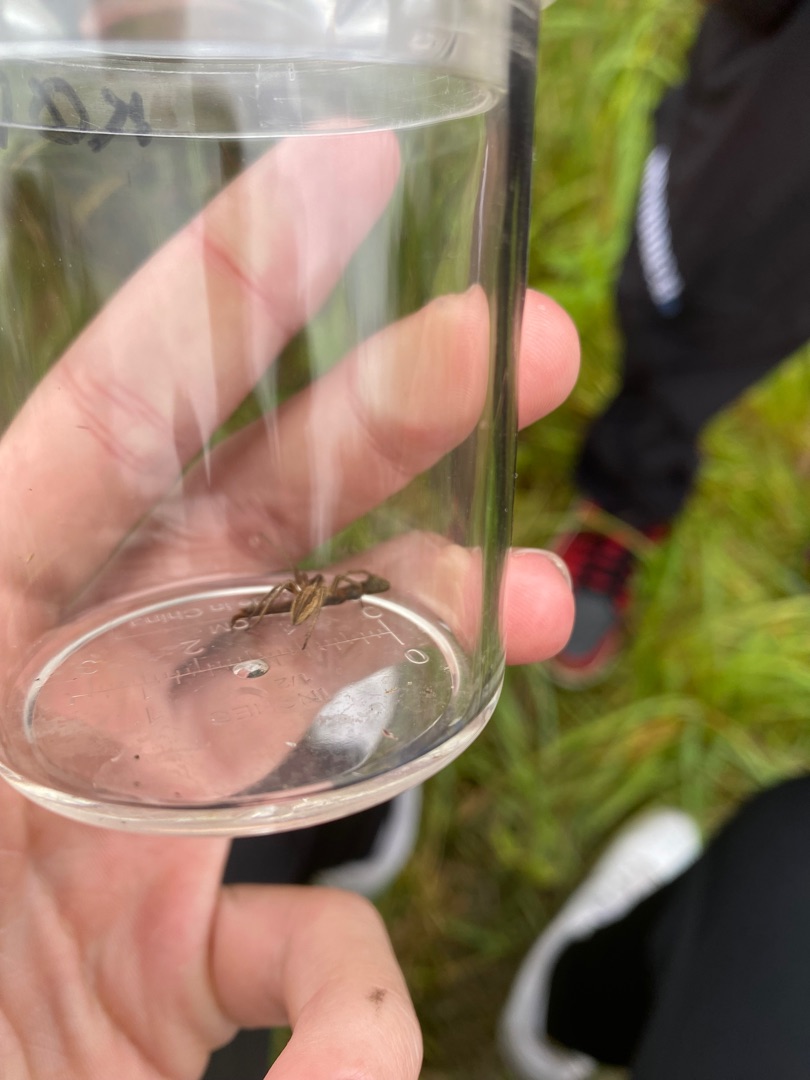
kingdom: Animalia
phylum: Arthropoda
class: Arachnida
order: Araneae
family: Pisauridae
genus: Pisaura
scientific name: Pisaura mirabilis
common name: Almindelig rovedderkop
